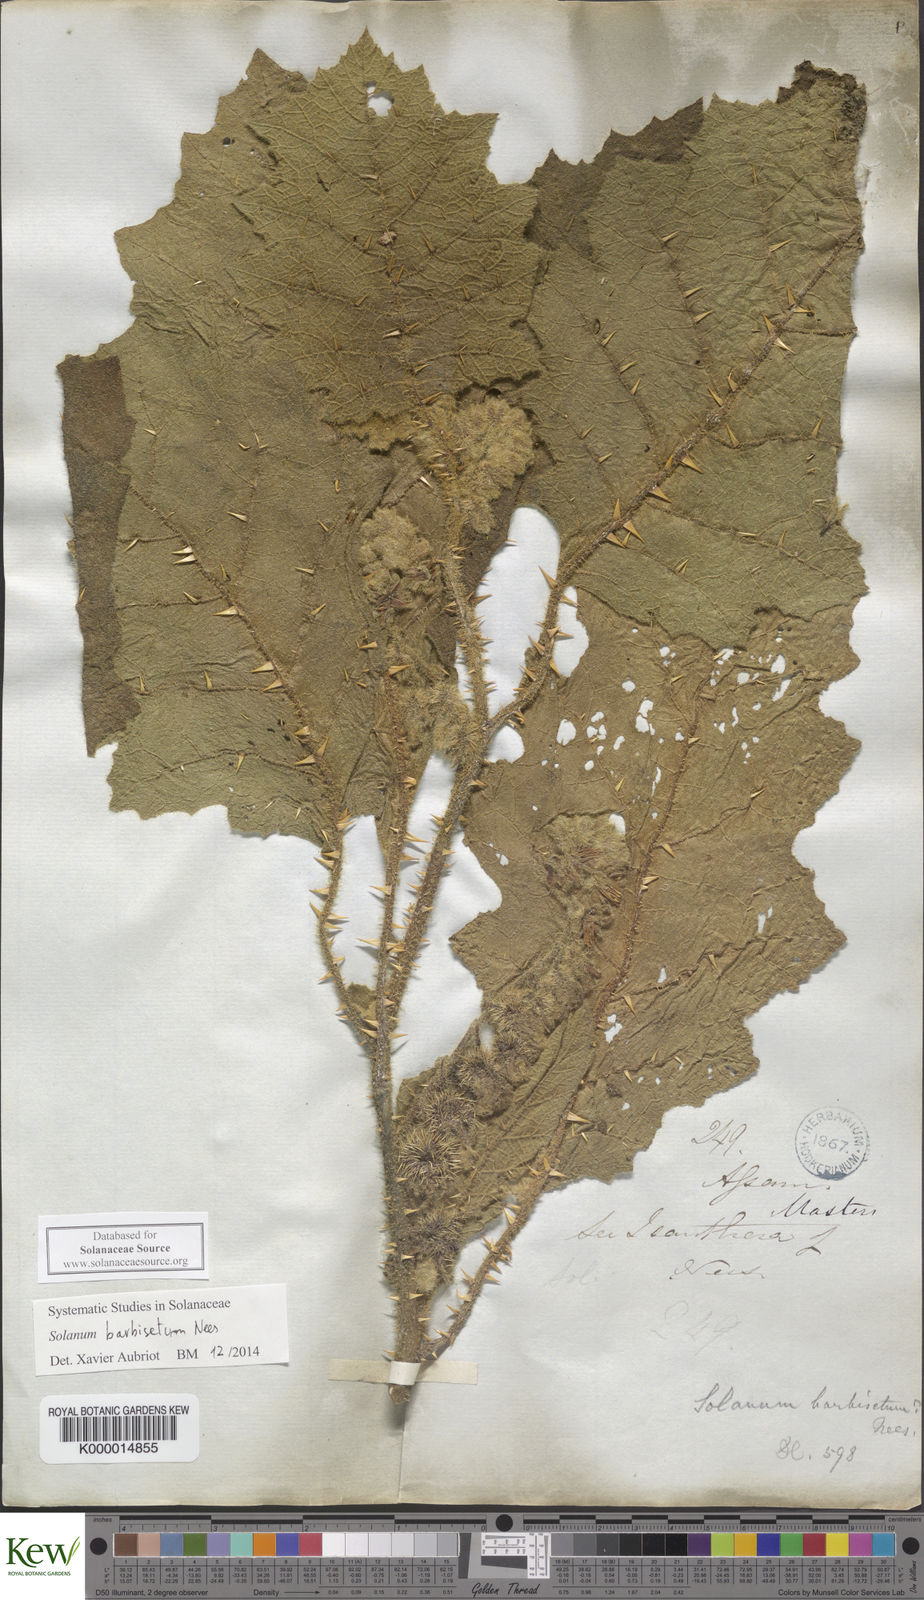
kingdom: Plantae
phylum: Tracheophyta
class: Magnoliopsida
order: Solanales
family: Solanaceae
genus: Solanum
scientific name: Solanum barbisetum
